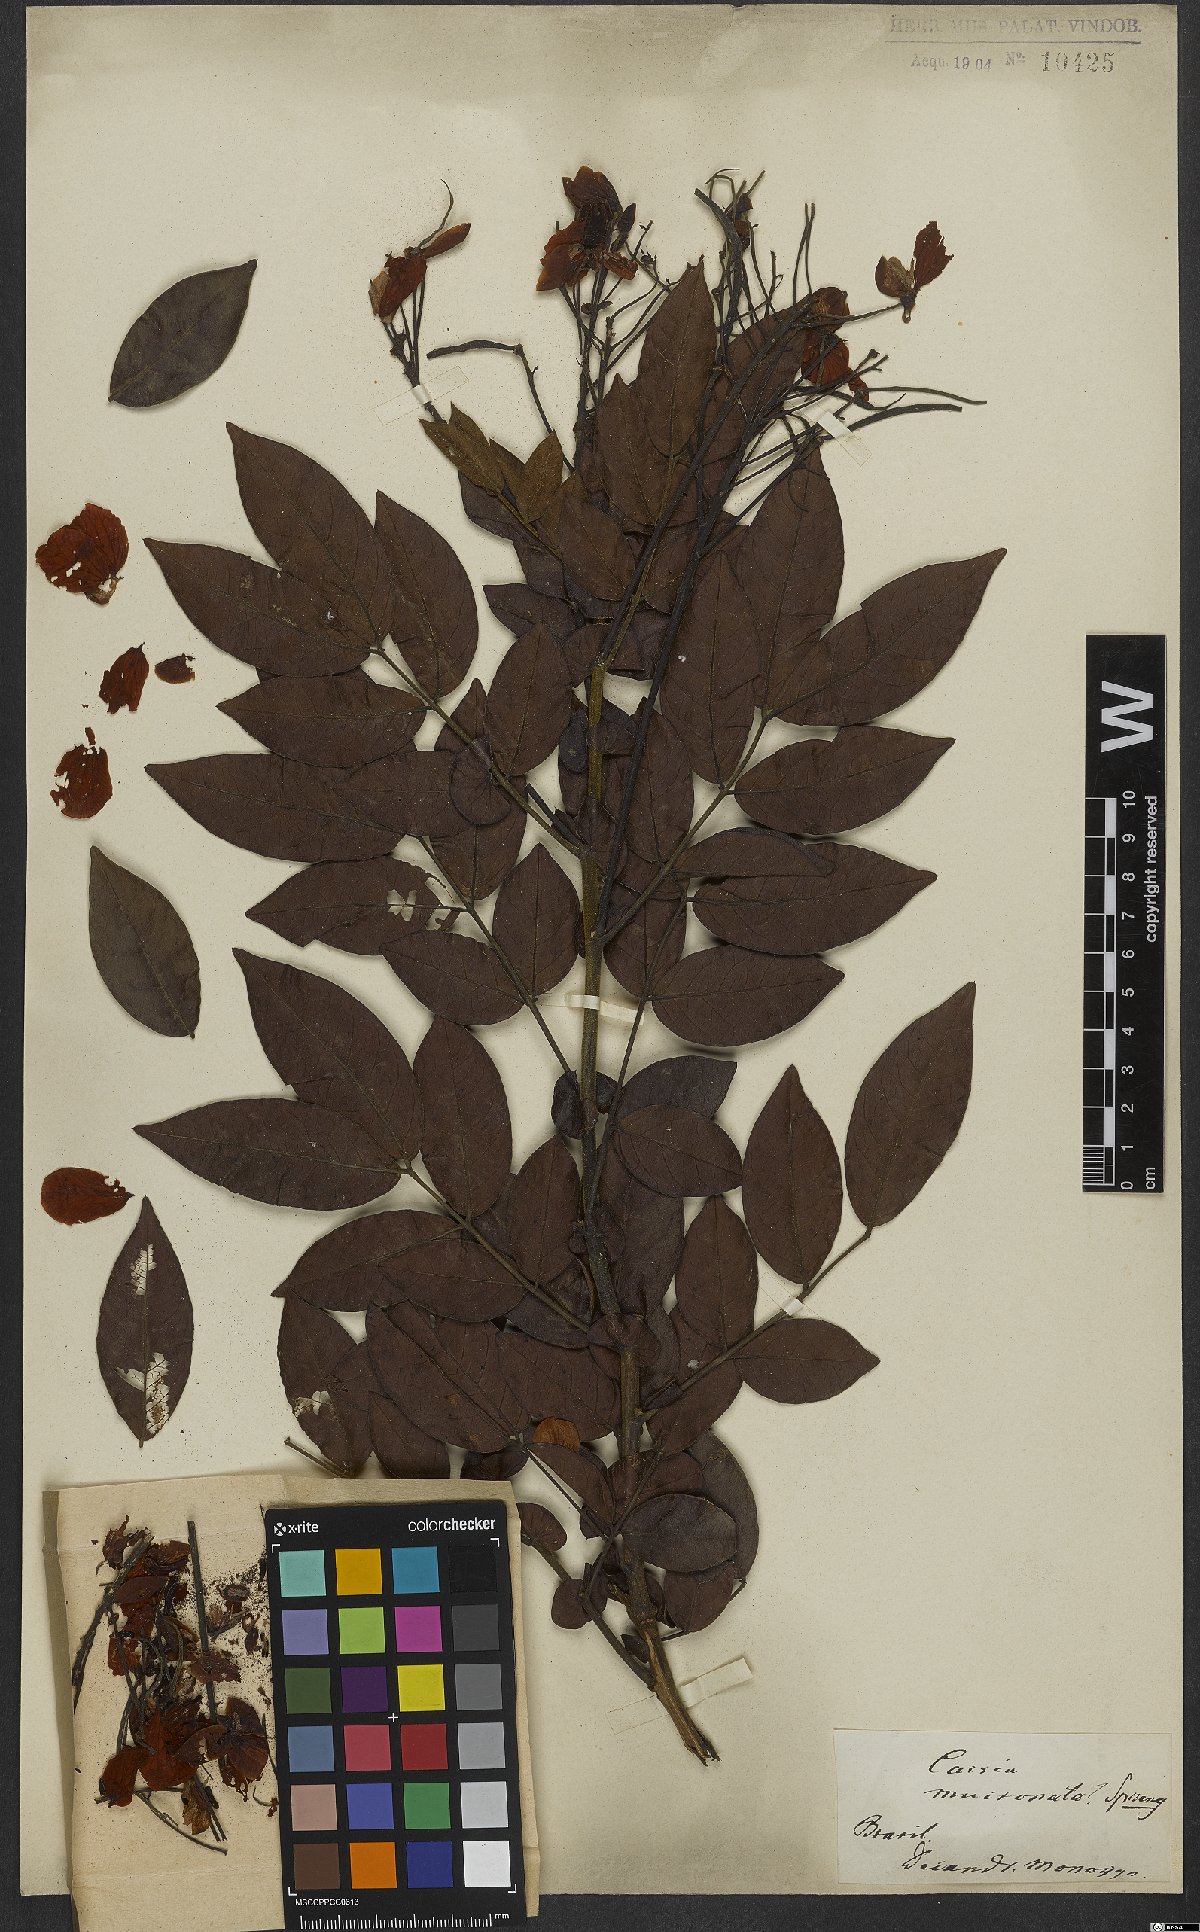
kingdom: Plantae
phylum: Tracheophyta
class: Magnoliopsida
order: Fabales
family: Fabaceae
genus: Chamaecrista
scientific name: Chamaecrista mucronata
